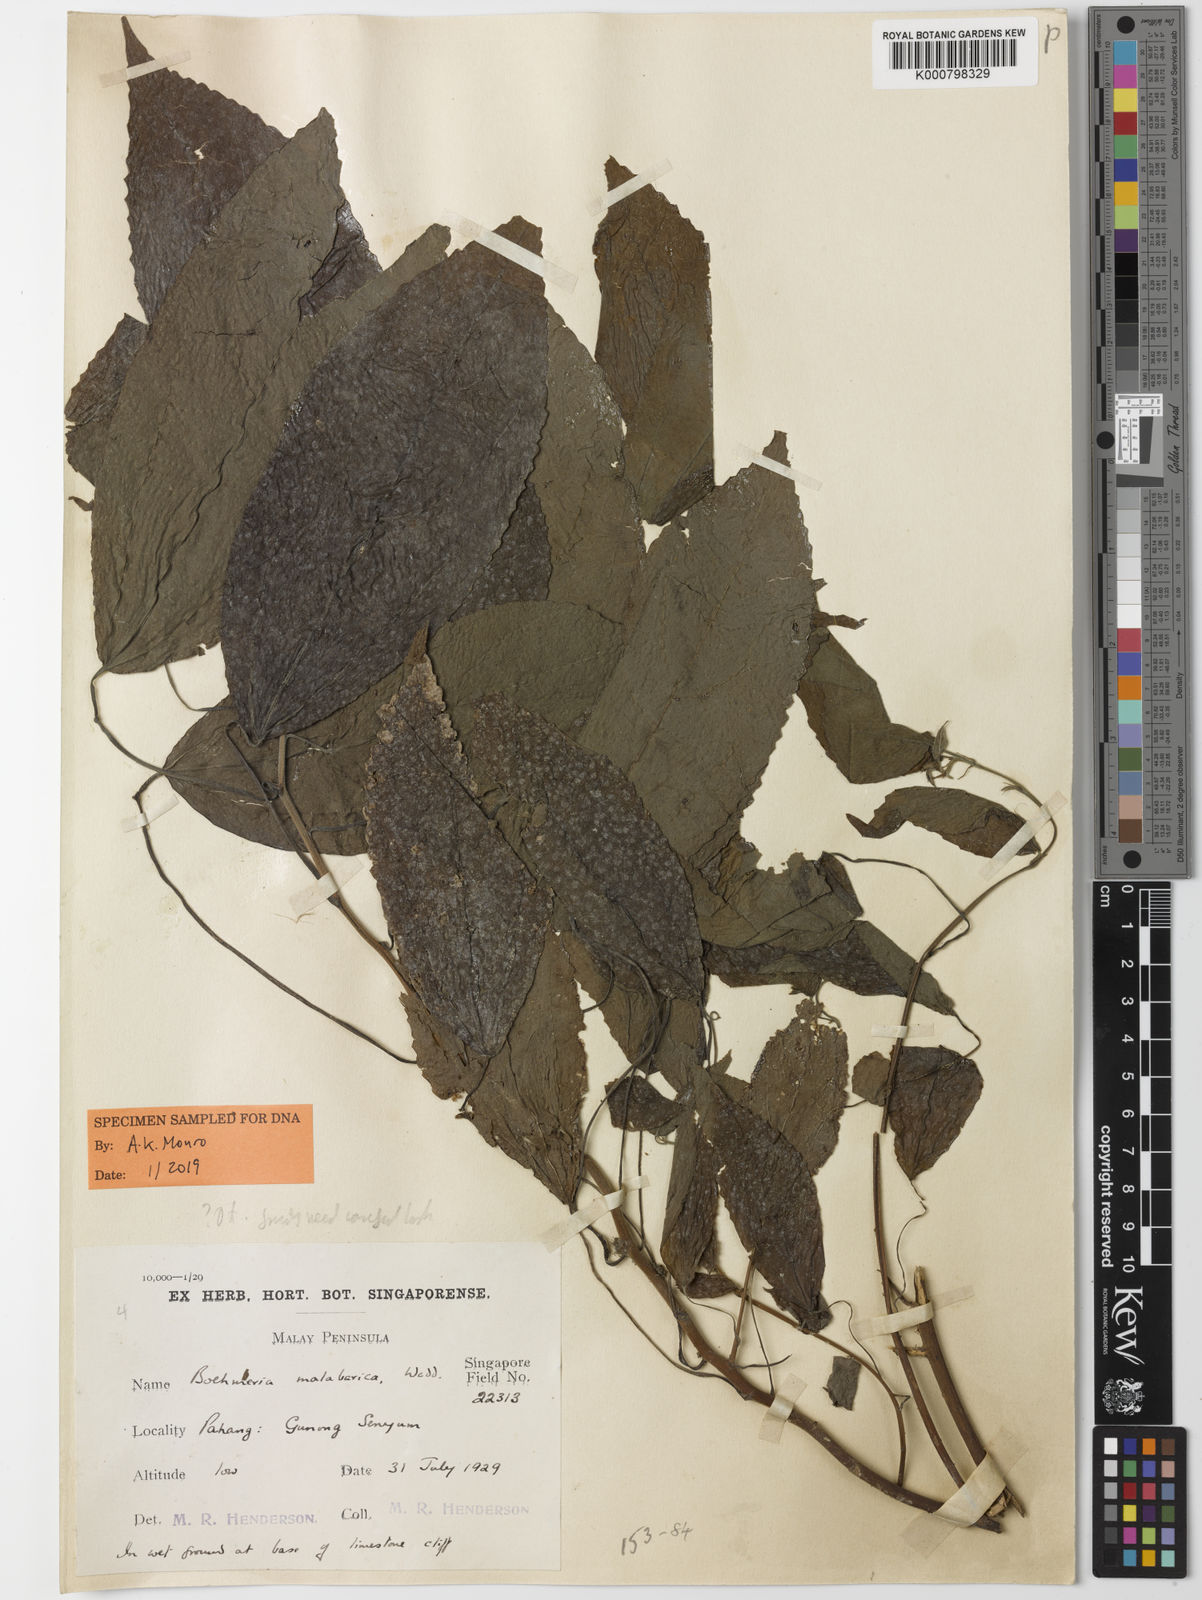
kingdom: Plantae
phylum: Tracheophyta
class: Magnoliopsida
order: Rosales
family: Urticaceae
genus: Boehmeria
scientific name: Boehmeria depauperata
